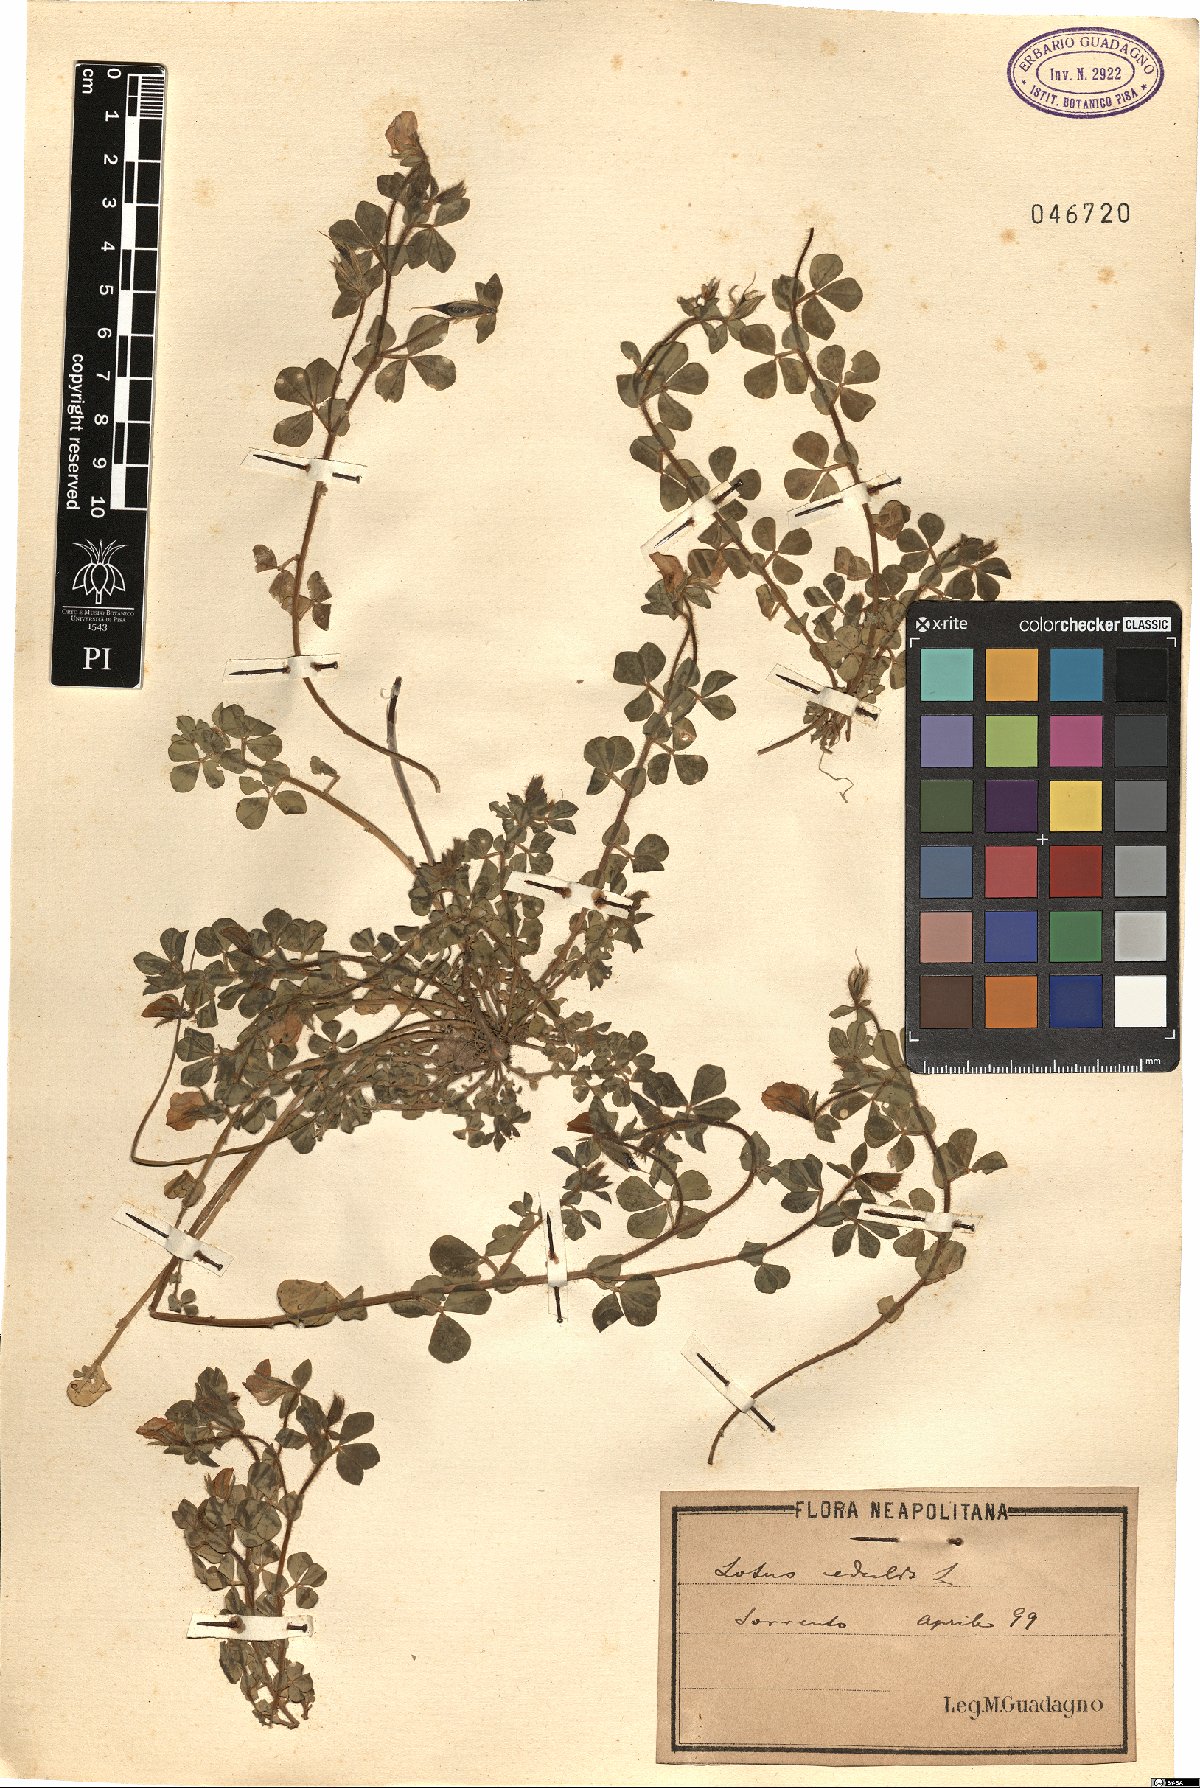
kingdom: Plantae
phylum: Tracheophyta
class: Magnoliopsida
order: Fabales
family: Fabaceae
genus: Lotus
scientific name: Lotus edulis
